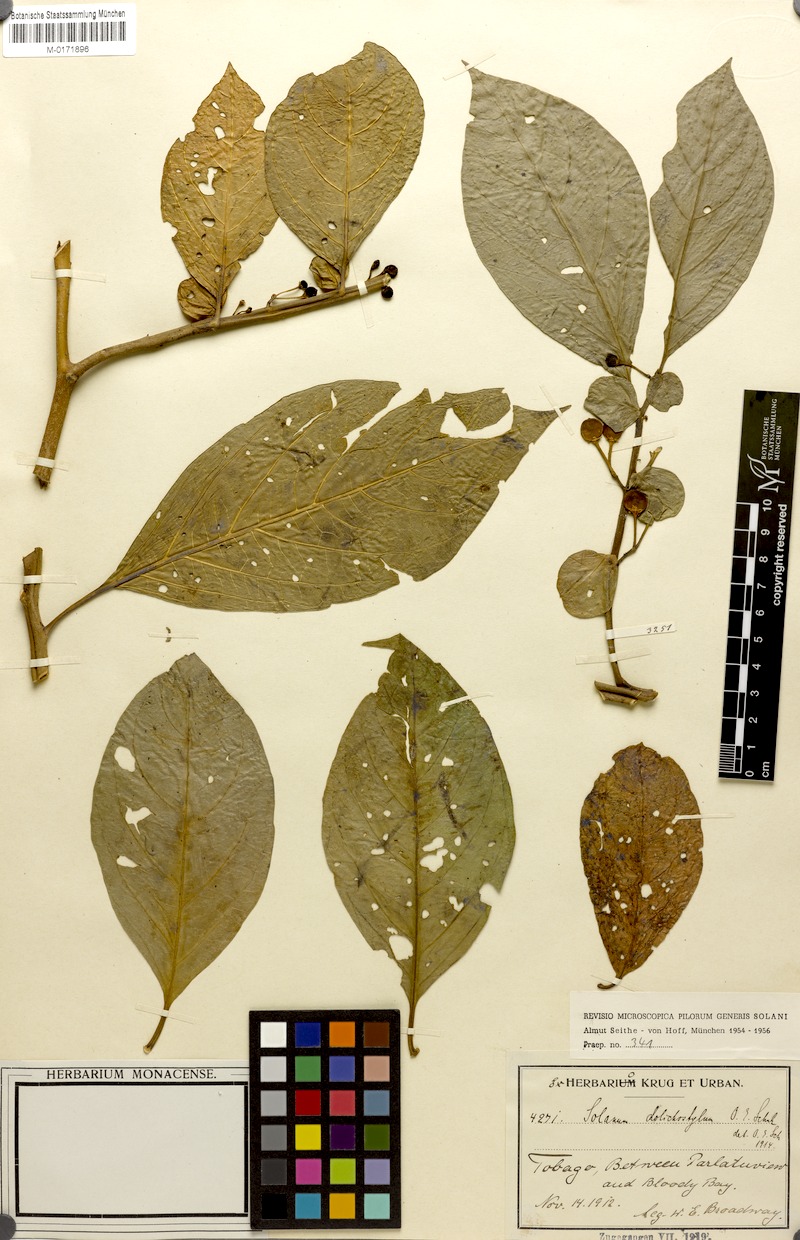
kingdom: Plantae
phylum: Tracheophyta
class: Magnoliopsida
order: Solanales
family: Solanaceae
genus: Solanum
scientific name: Solanum arboreum
